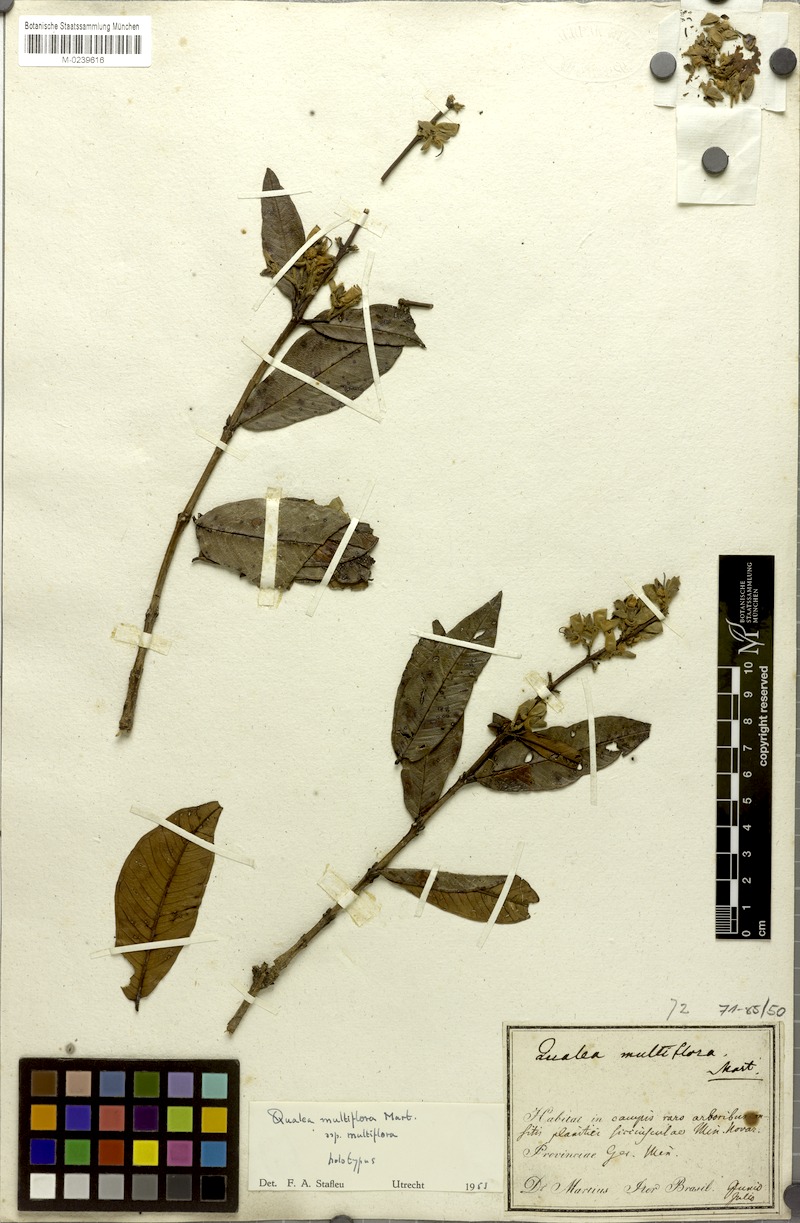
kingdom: Plantae
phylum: Tracheophyta
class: Magnoliopsida
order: Myrtales
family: Vochysiaceae
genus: Qualea
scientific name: Qualea multiflora
